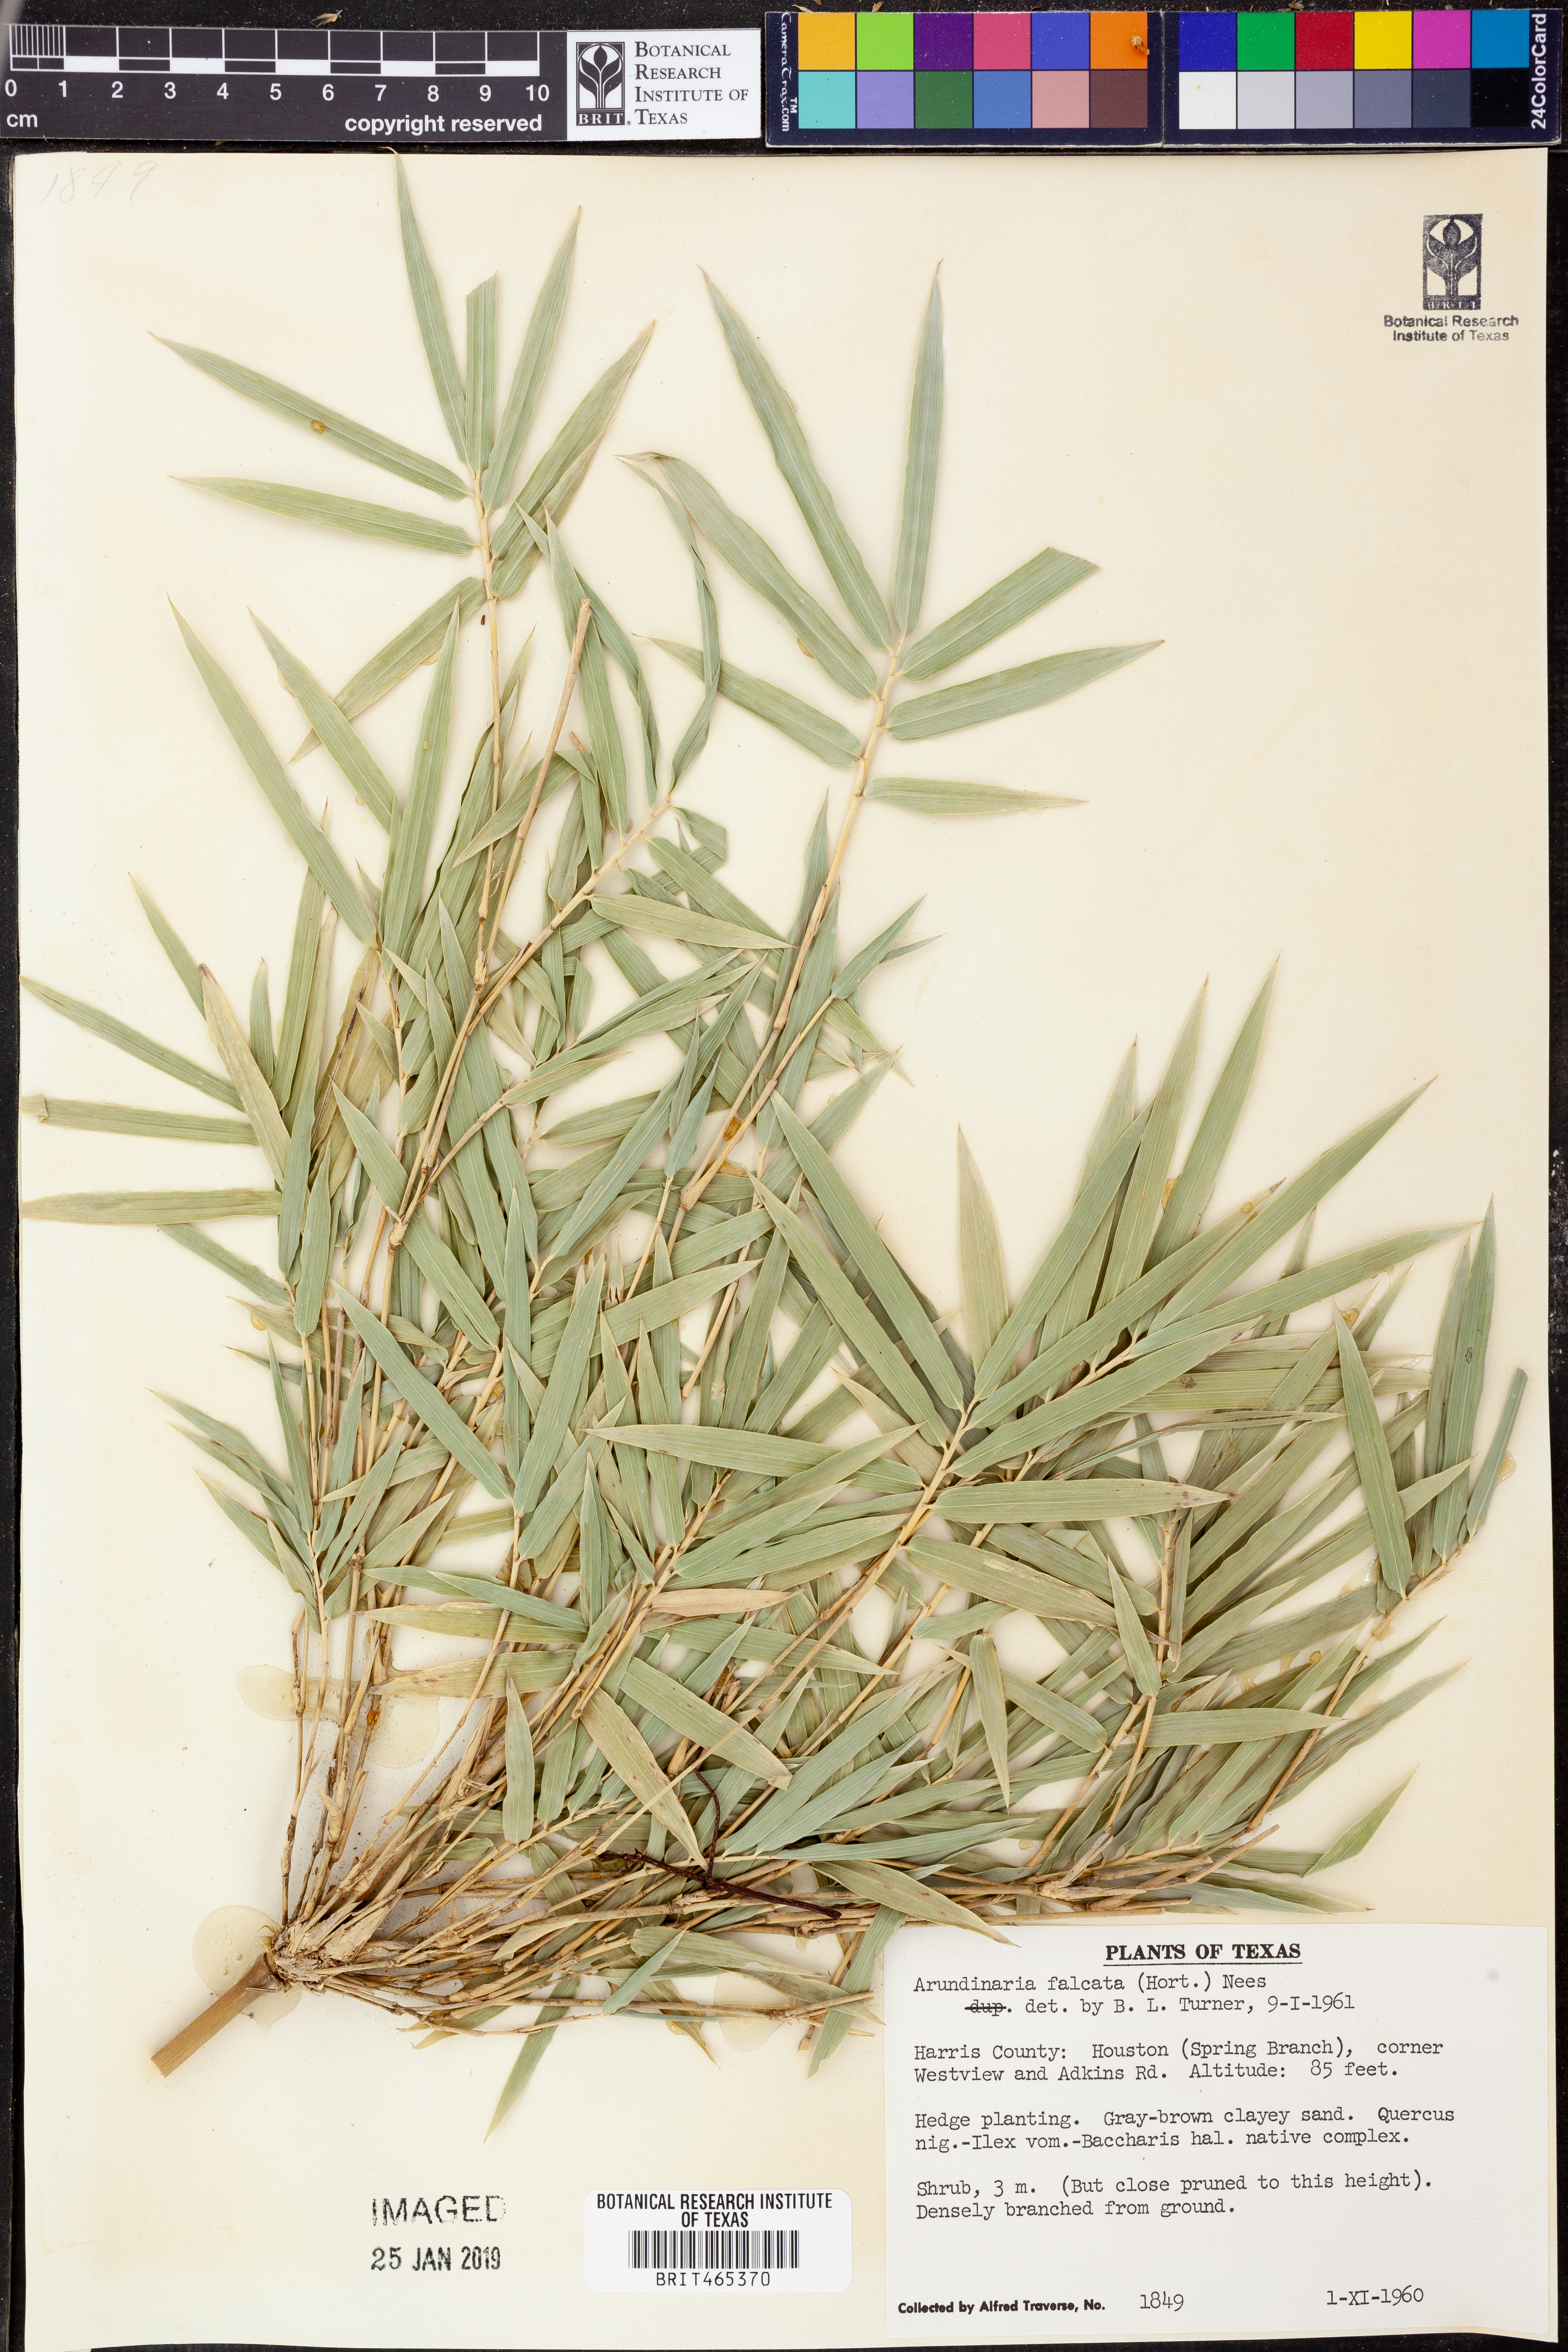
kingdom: Plantae
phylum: Tracheophyta
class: Liliopsida
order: Poales
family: Poaceae
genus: Arundinaria
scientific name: Arundinaria falcata
